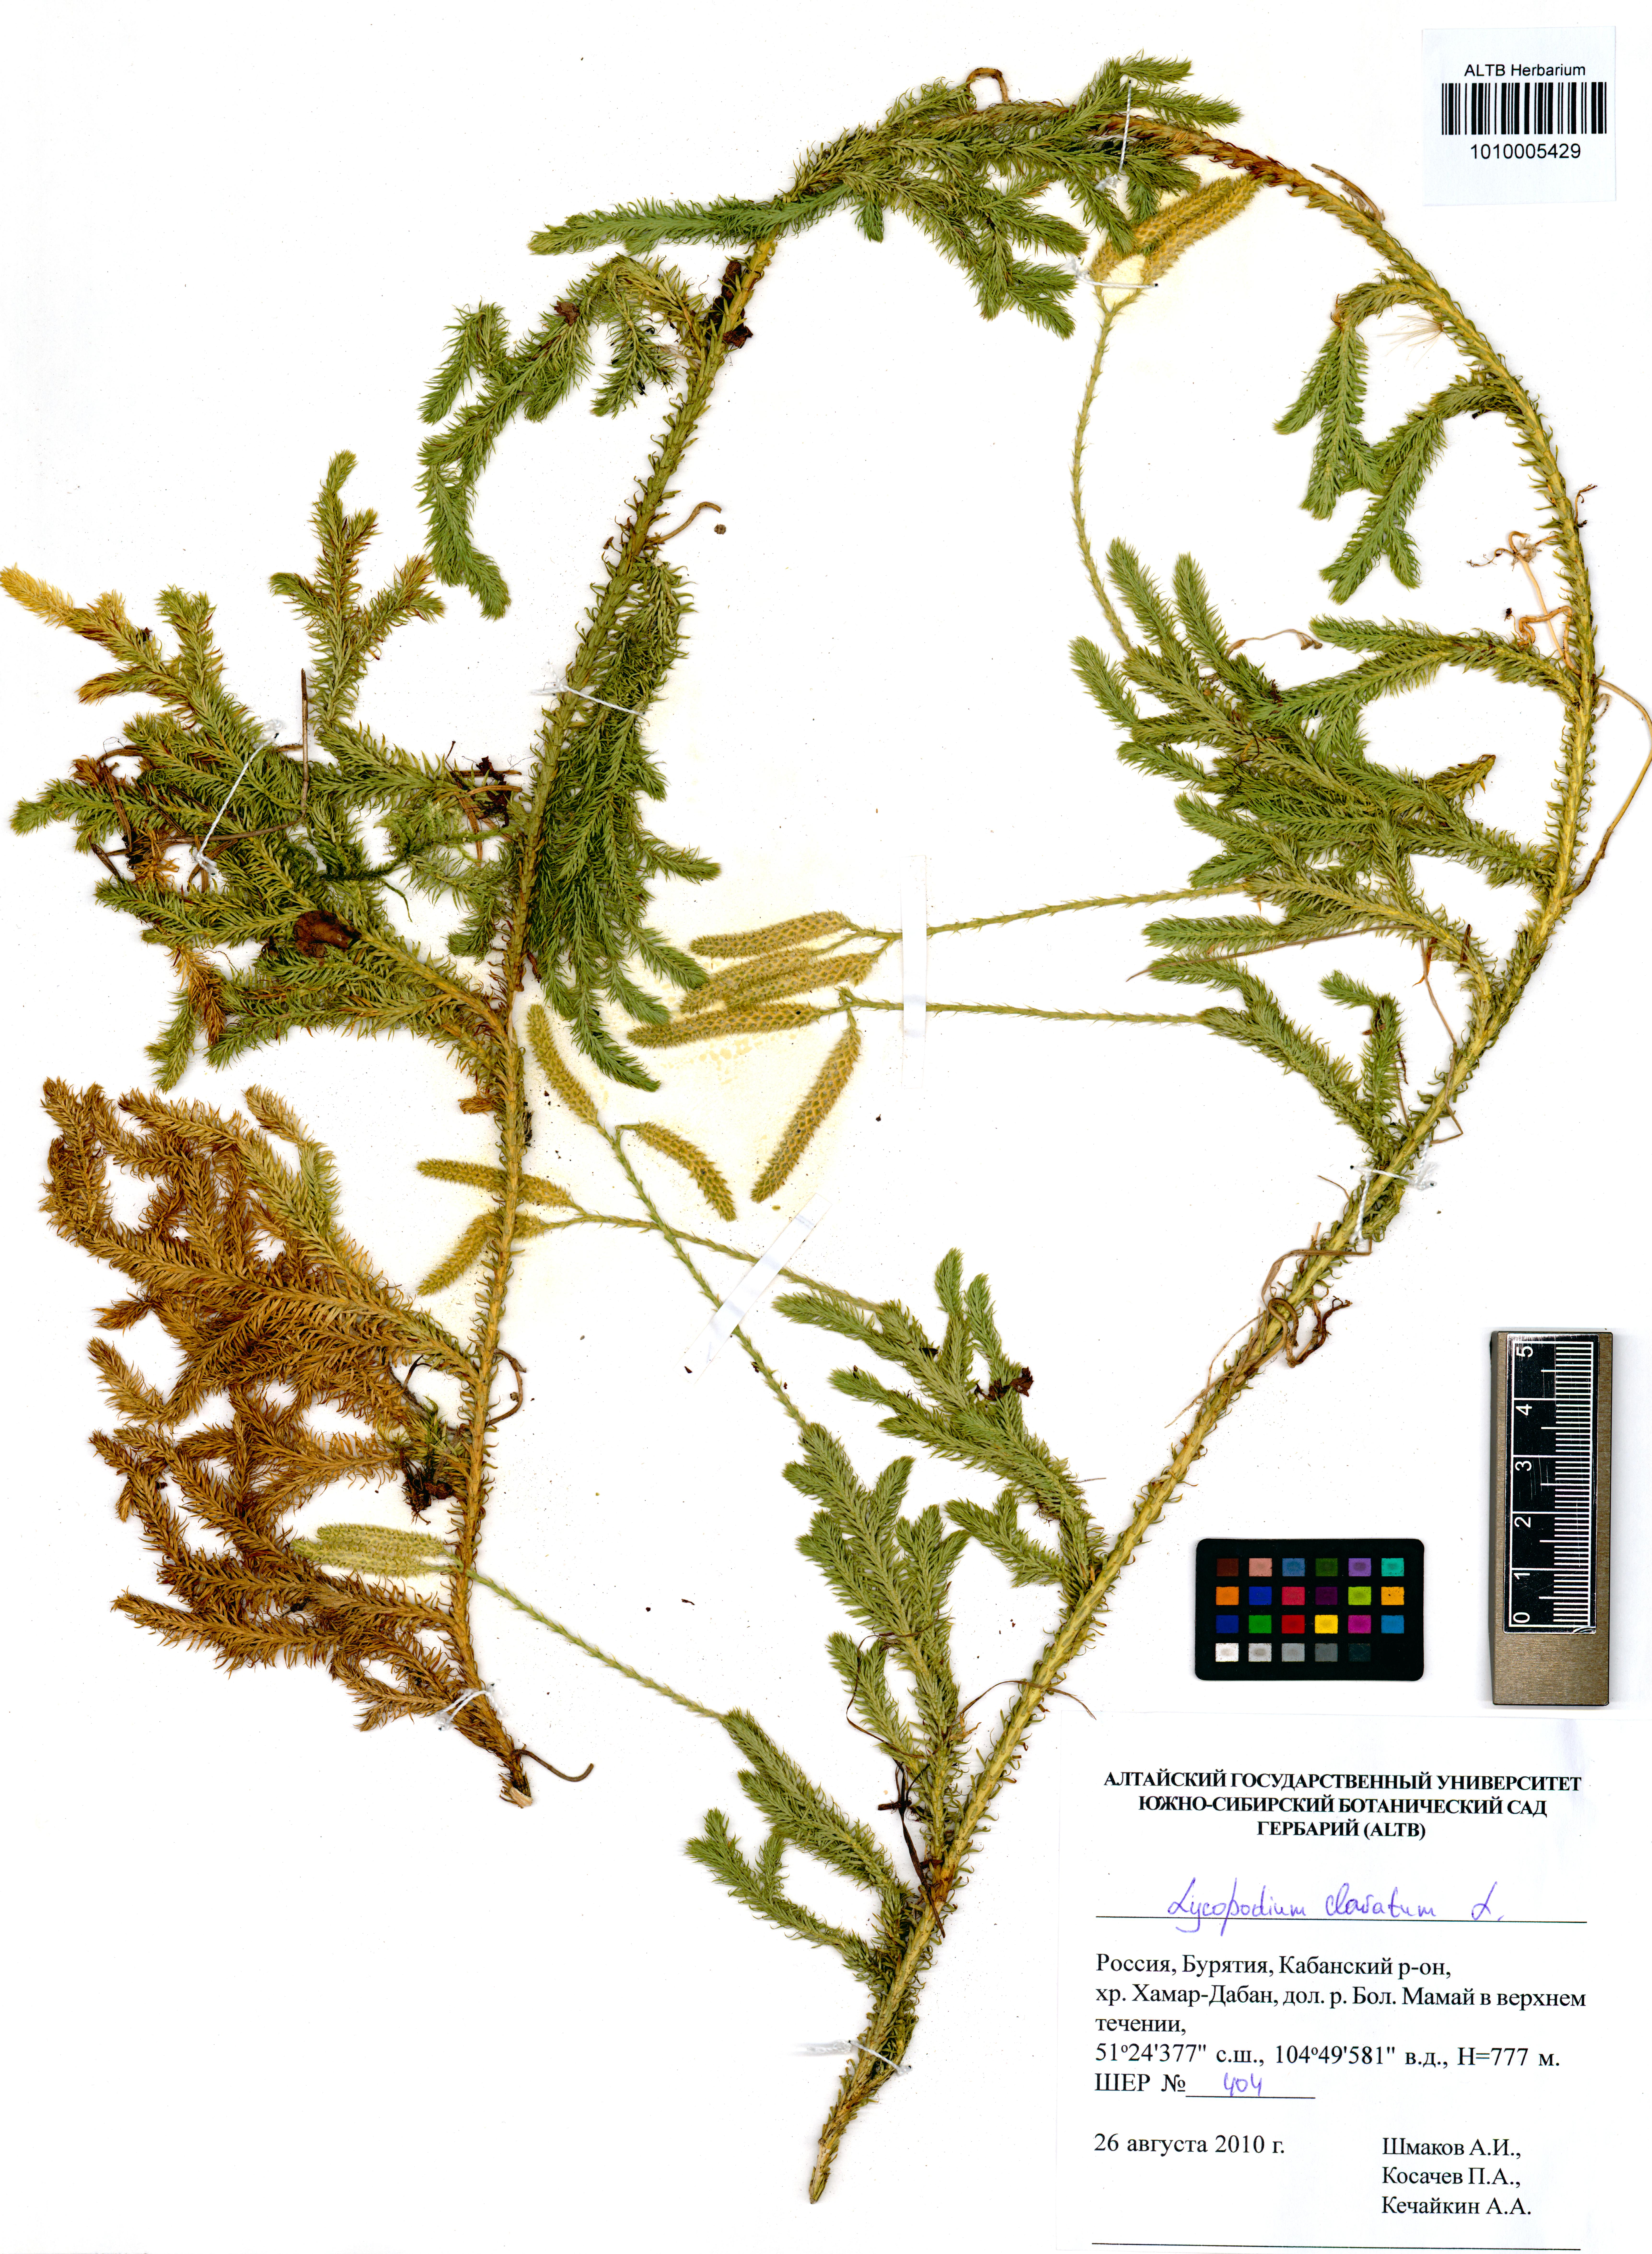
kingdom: Plantae
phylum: Tracheophyta
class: Lycopodiopsida
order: Lycopodiales
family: Lycopodiaceae
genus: Lycopodium
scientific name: Lycopodium clavatum
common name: Stag's-horn clubmoss
